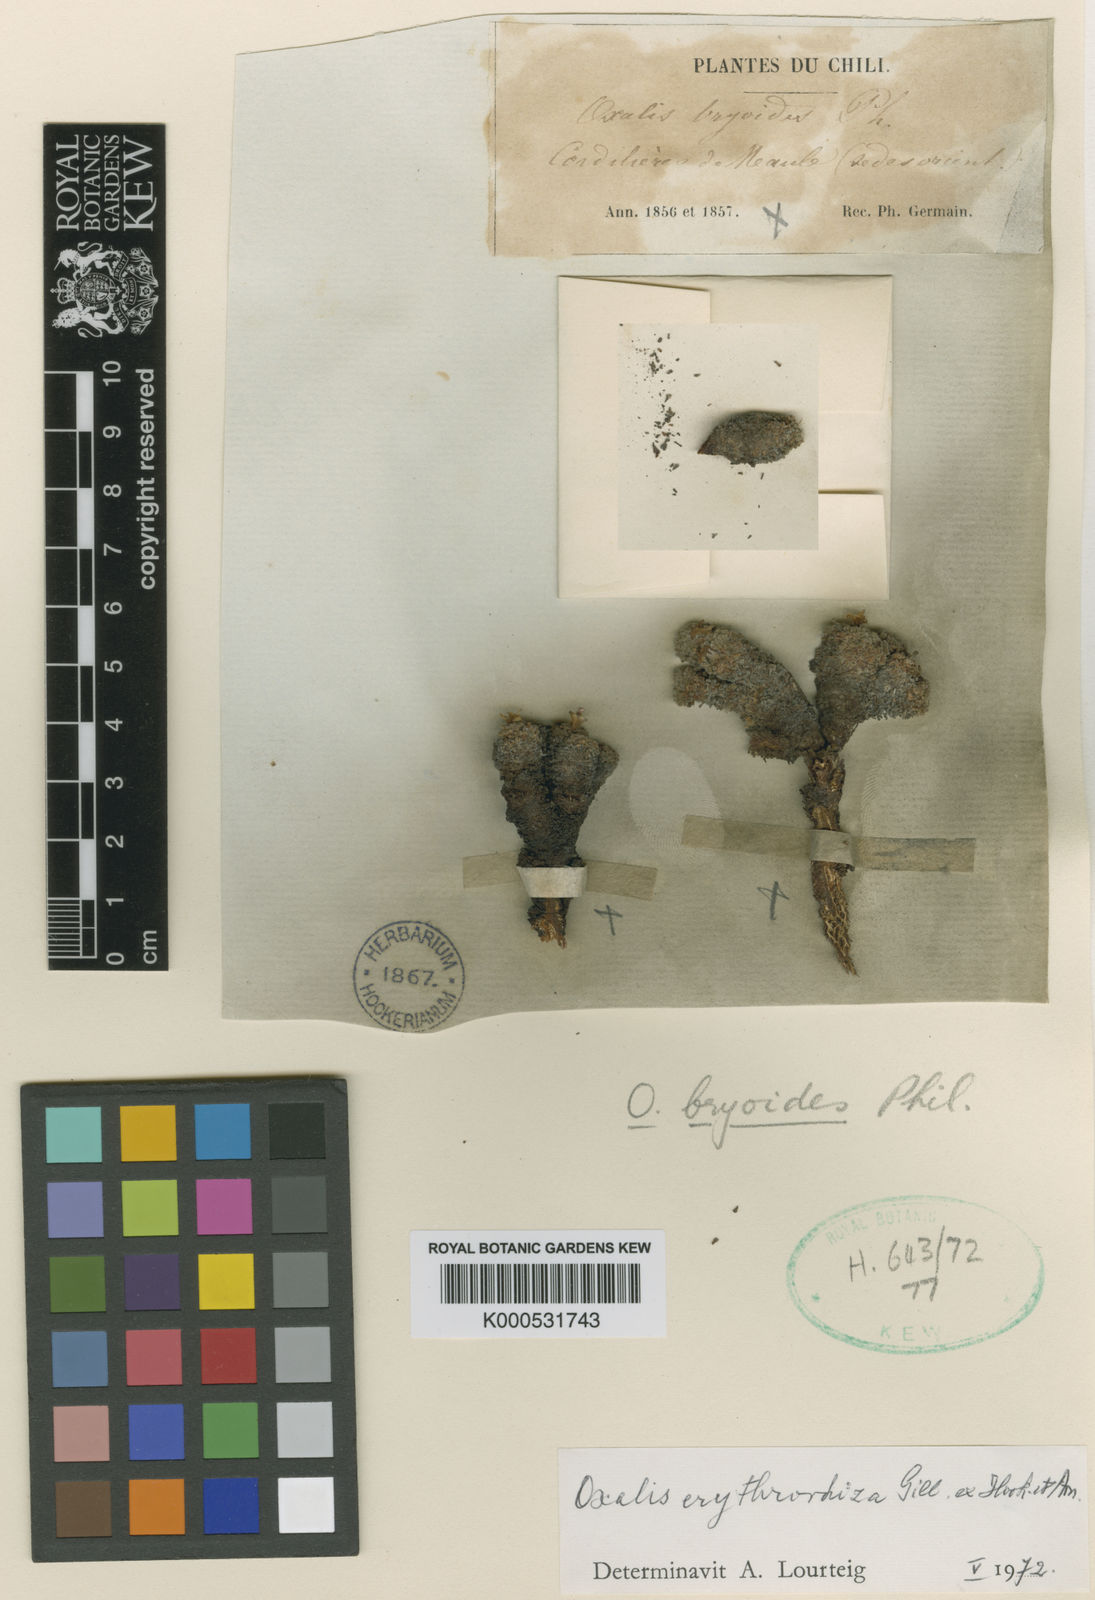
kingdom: Plantae
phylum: Tracheophyta
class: Magnoliopsida
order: Oxalidales
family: Oxalidaceae
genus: Oxalis
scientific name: Oxalis erythrorhiza
